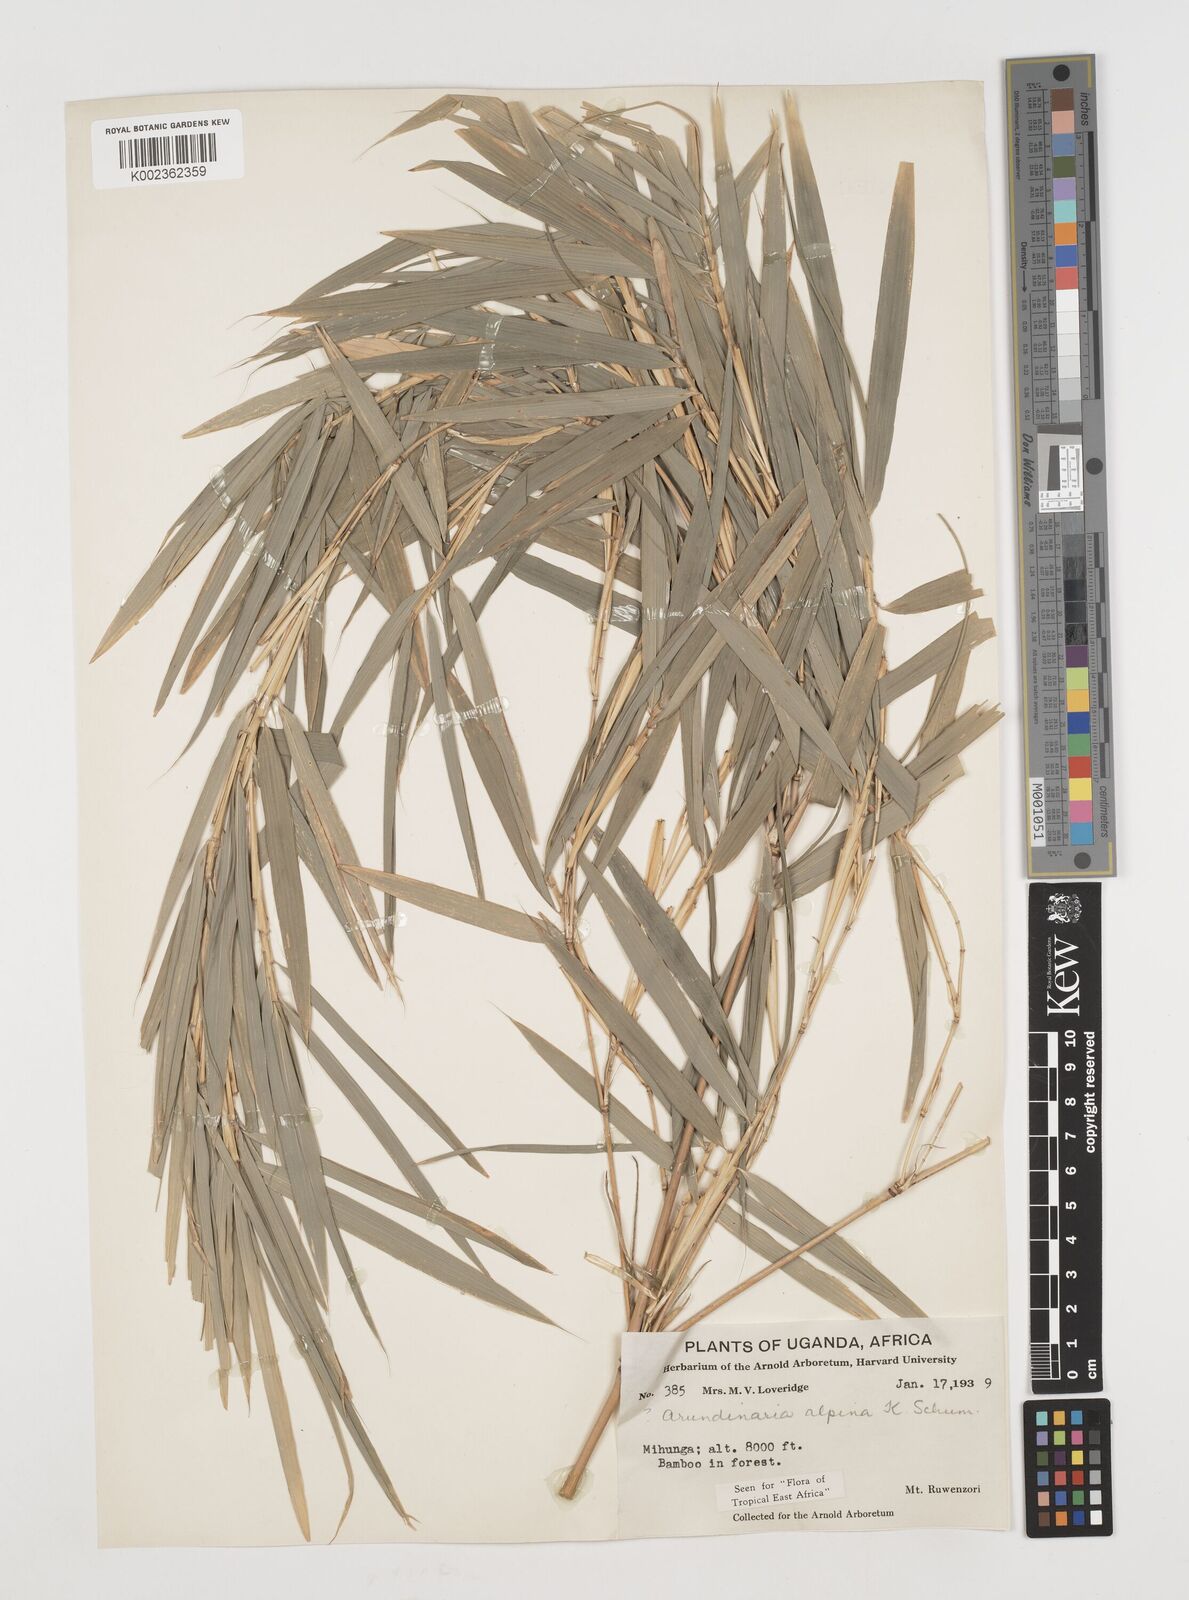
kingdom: Plantae
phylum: Tracheophyta
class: Liliopsida
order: Poales
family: Poaceae
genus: Oldeania
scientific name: Oldeania alpina
